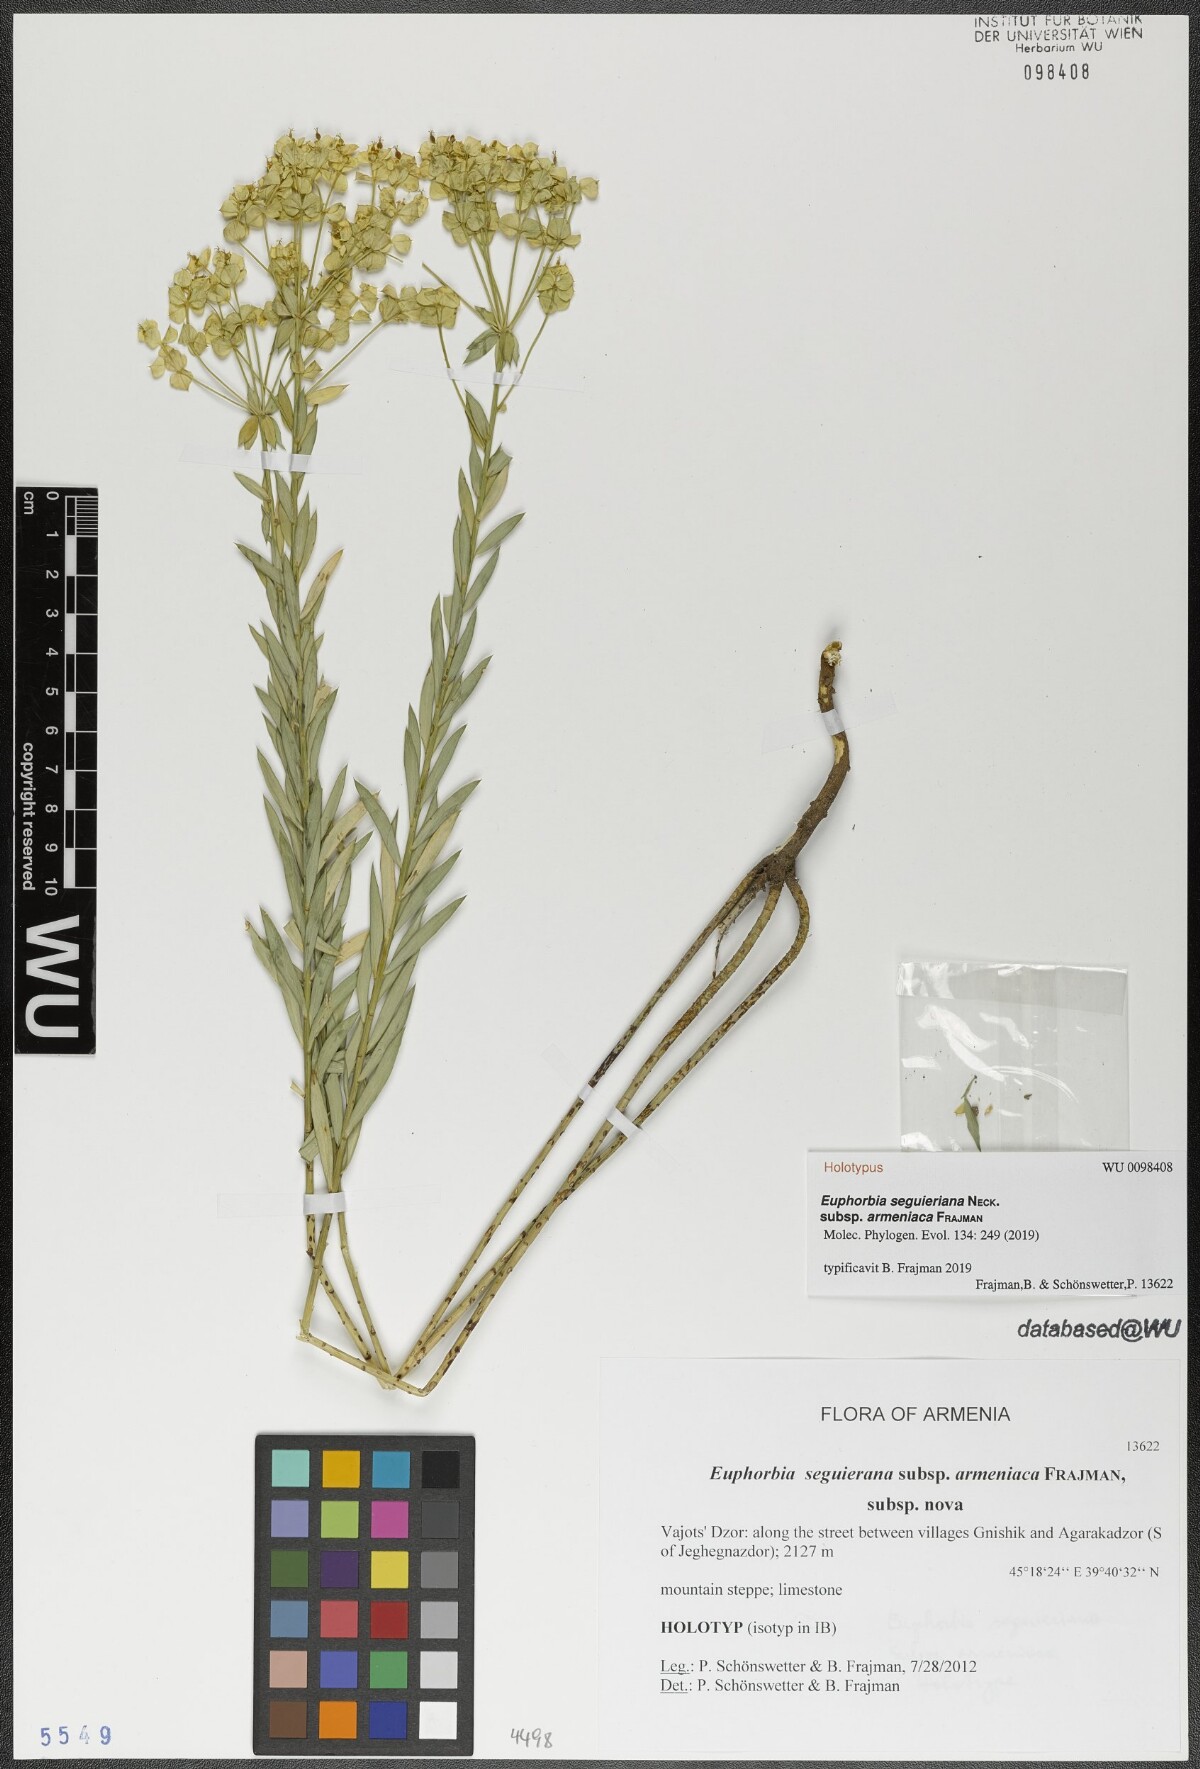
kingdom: Plantae
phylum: Tracheophyta
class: Magnoliopsida
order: Malpighiales
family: Euphorbiaceae
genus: Euphorbia
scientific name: Euphorbia seguieriana
